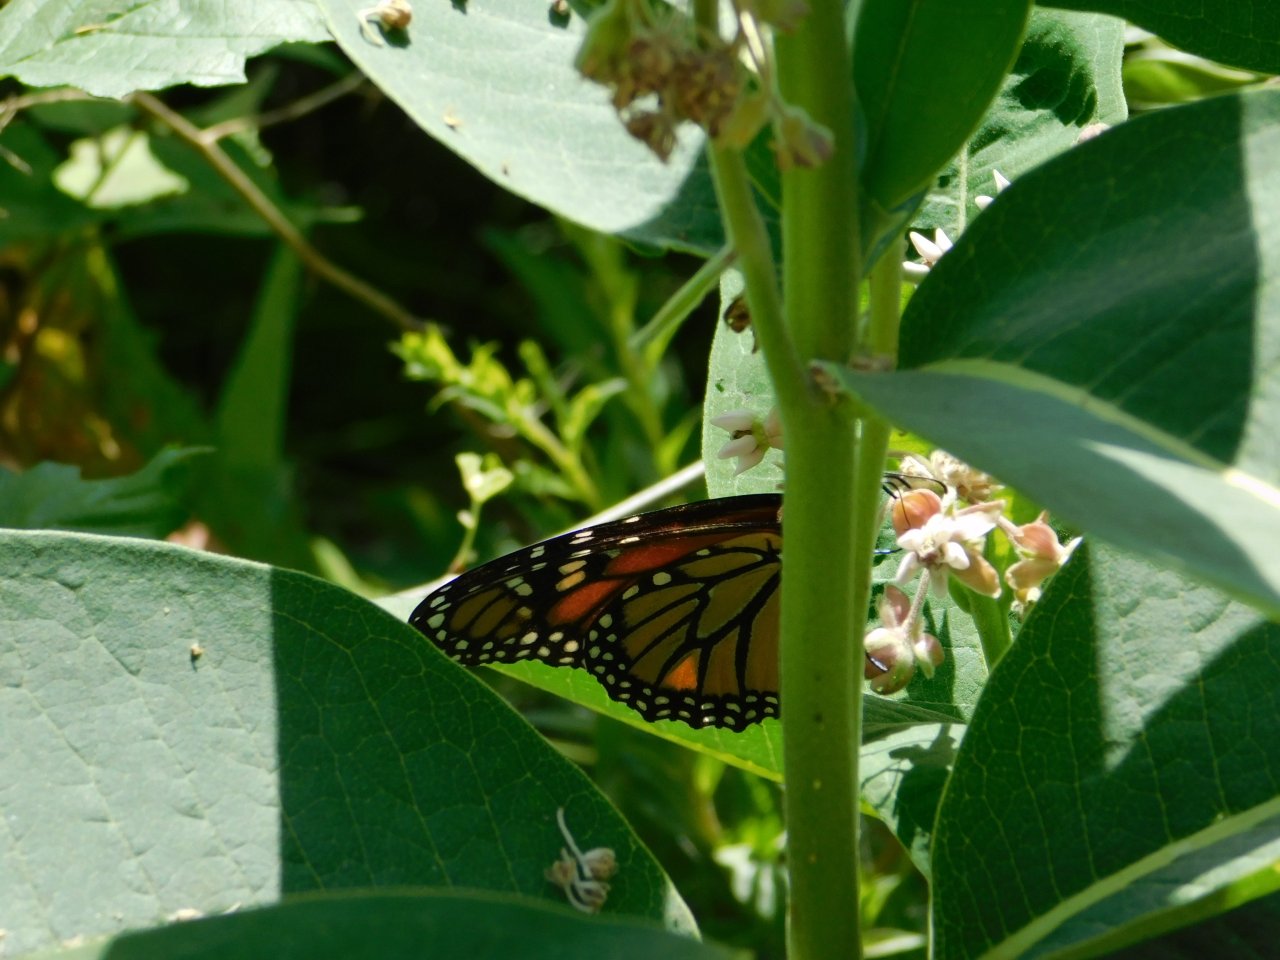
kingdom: Animalia
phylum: Arthropoda
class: Insecta
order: Lepidoptera
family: Nymphalidae
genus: Danaus
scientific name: Danaus plexippus
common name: Monarch
